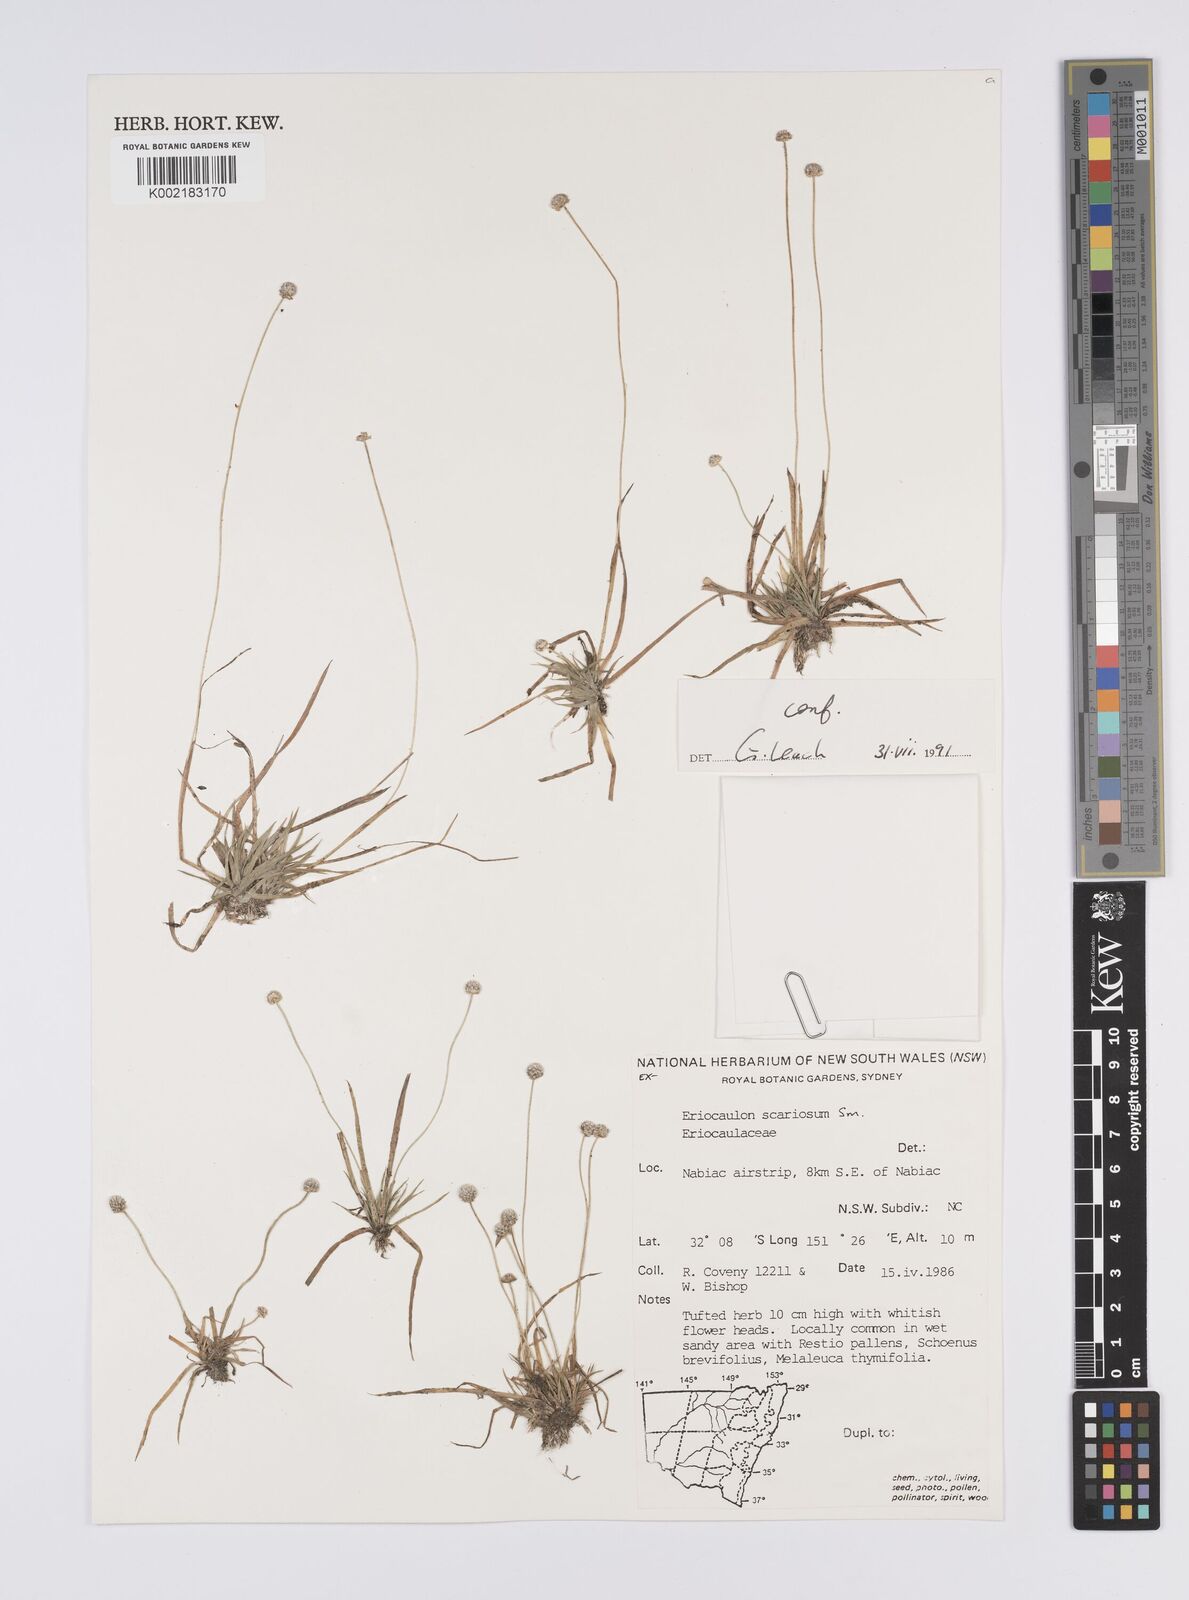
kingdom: Plantae
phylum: Tracheophyta
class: Liliopsida
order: Poales
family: Eriocaulaceae
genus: Eriocaulon
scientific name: Eriocaulon scariosum
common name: Rough pipewort
